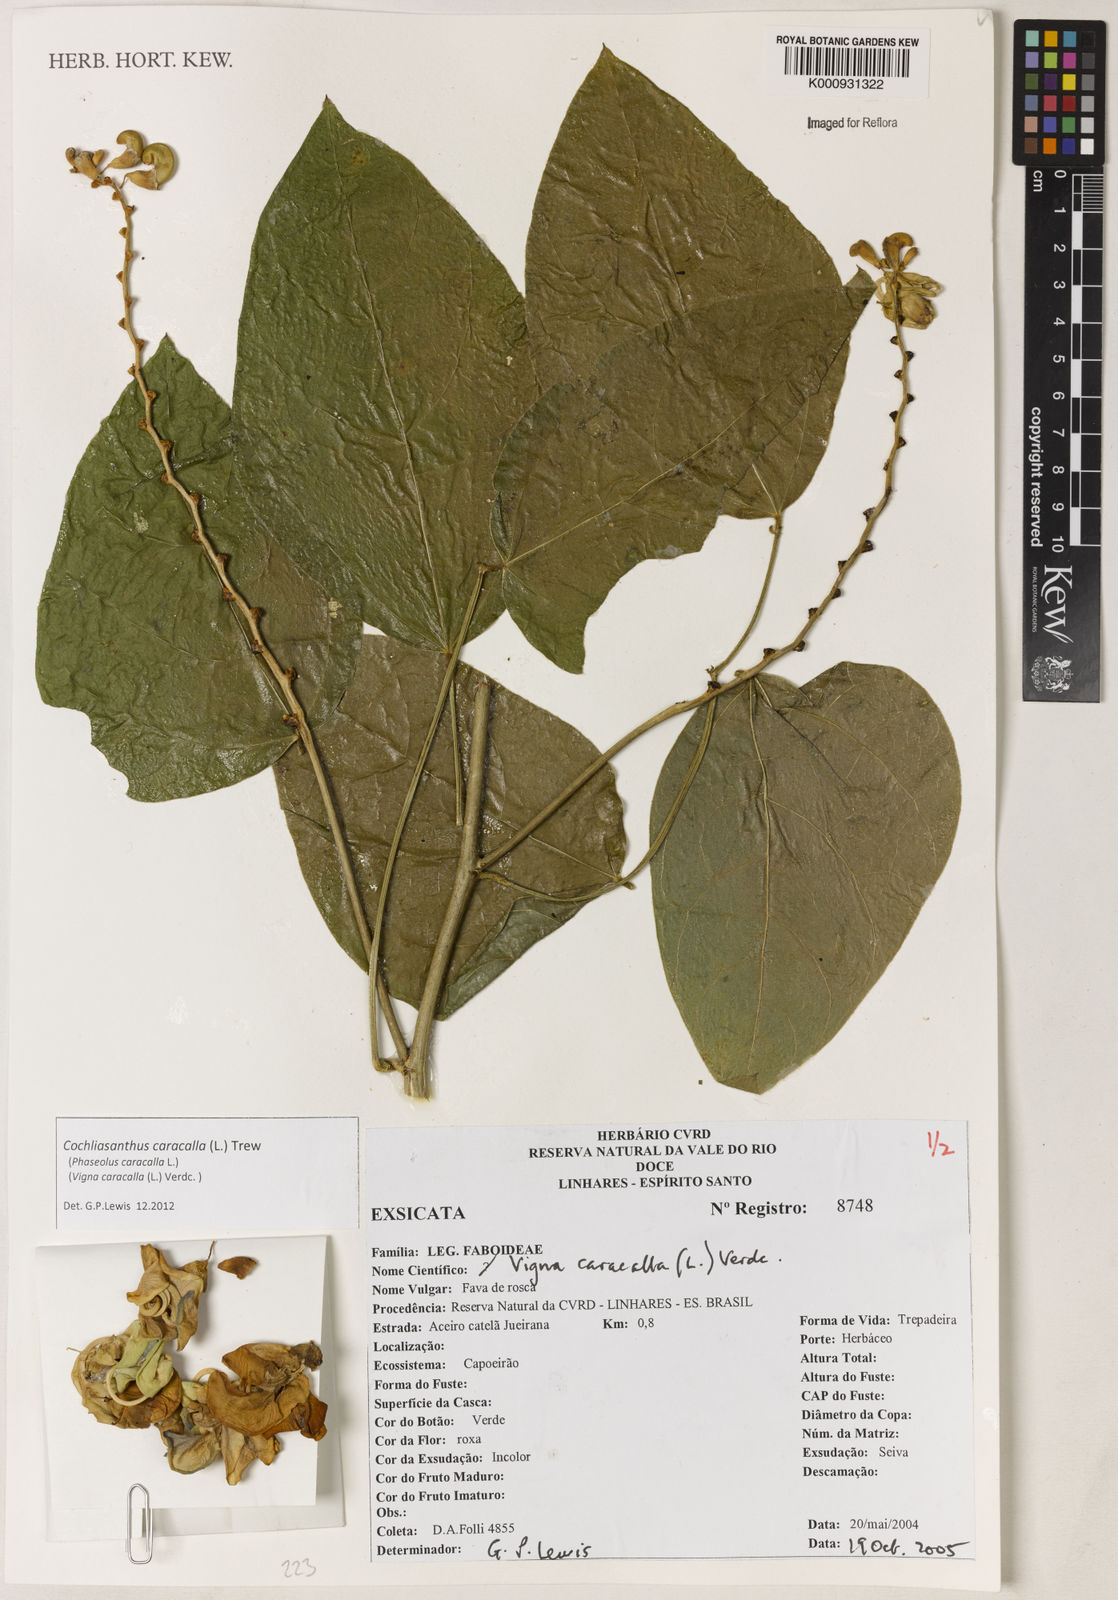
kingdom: Plantae
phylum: Tracheophyta
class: Magnoliopsida
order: Fabales
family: Fabaceae
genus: Cochliasanthus
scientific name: Cochliasanthus caracalla
